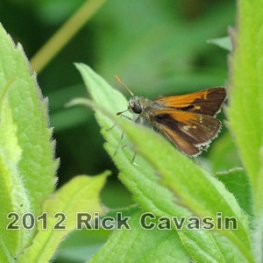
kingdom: Animalia
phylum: Arthropoda
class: Insecta
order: Lepidoptera
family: Hesperiidae
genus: Polites
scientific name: Polites themistocles
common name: Tawny-edged Skipper
